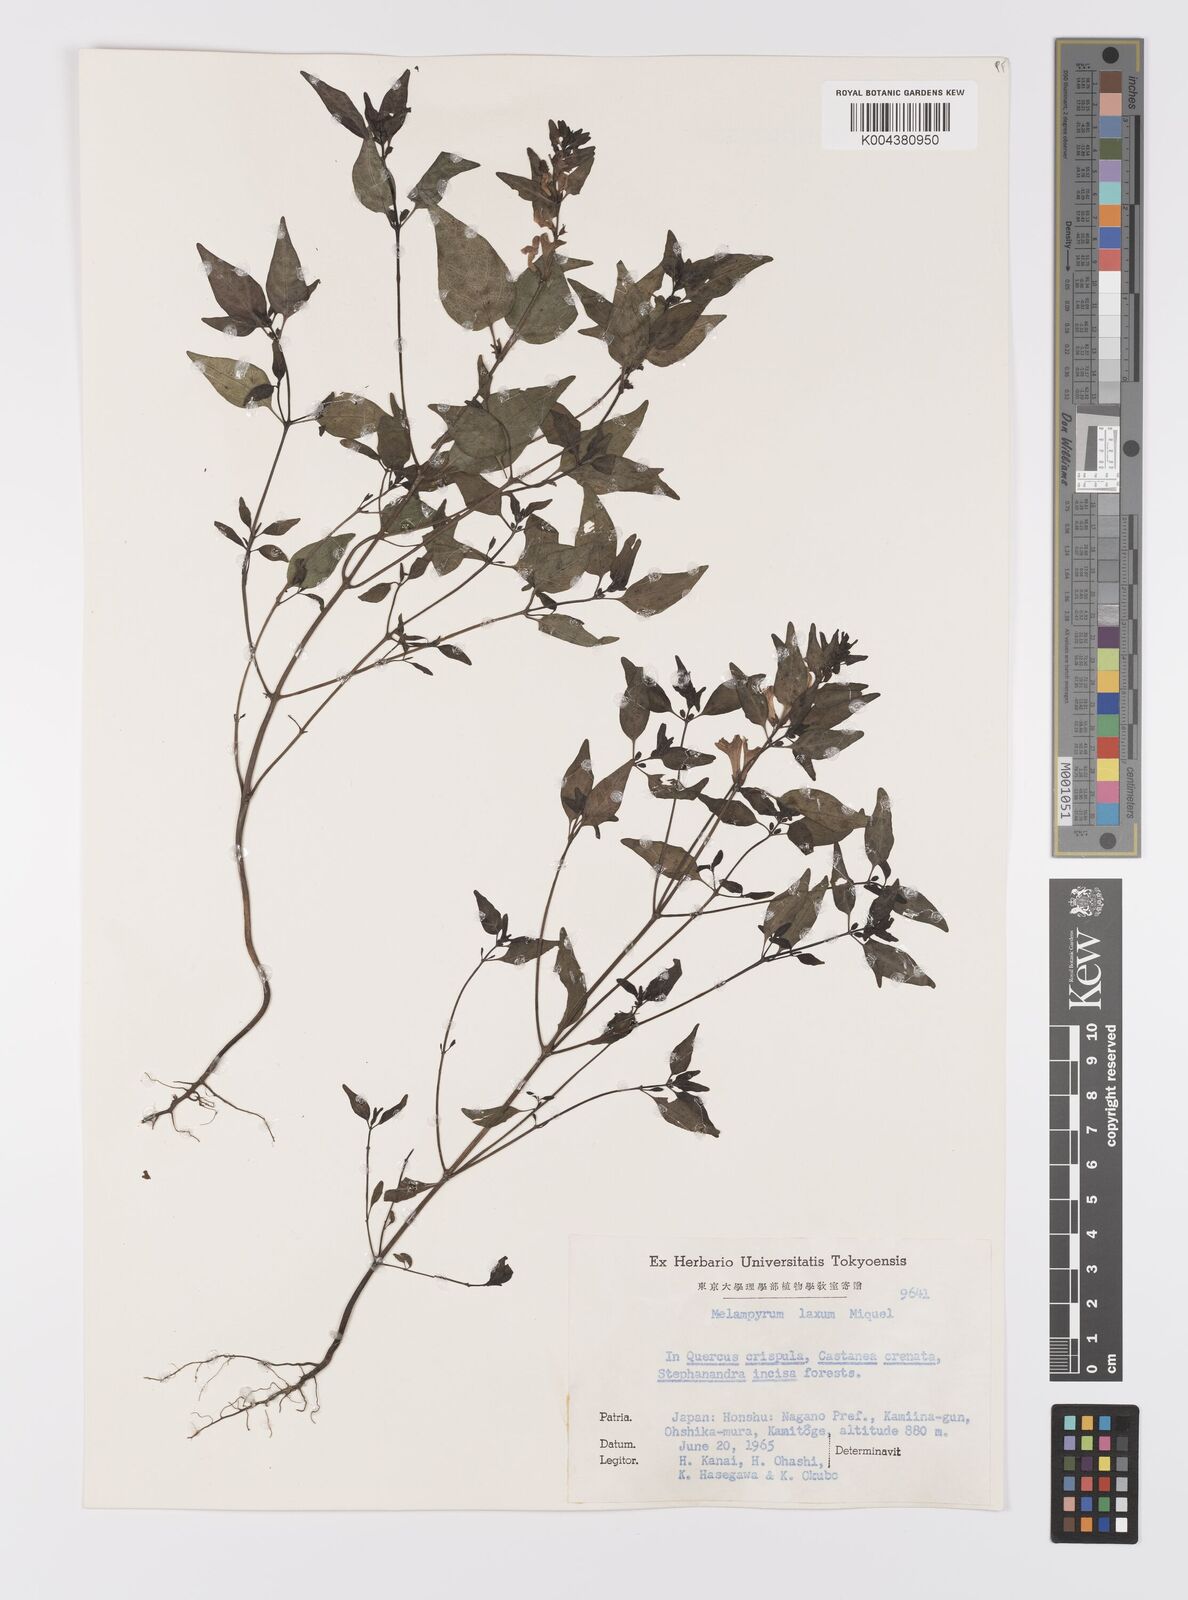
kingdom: Plantae
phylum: Tracheophyta
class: Magnoliopsida
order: Lamiales
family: Orobanchaceae
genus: Melampyrum
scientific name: Melampyrum laxum
